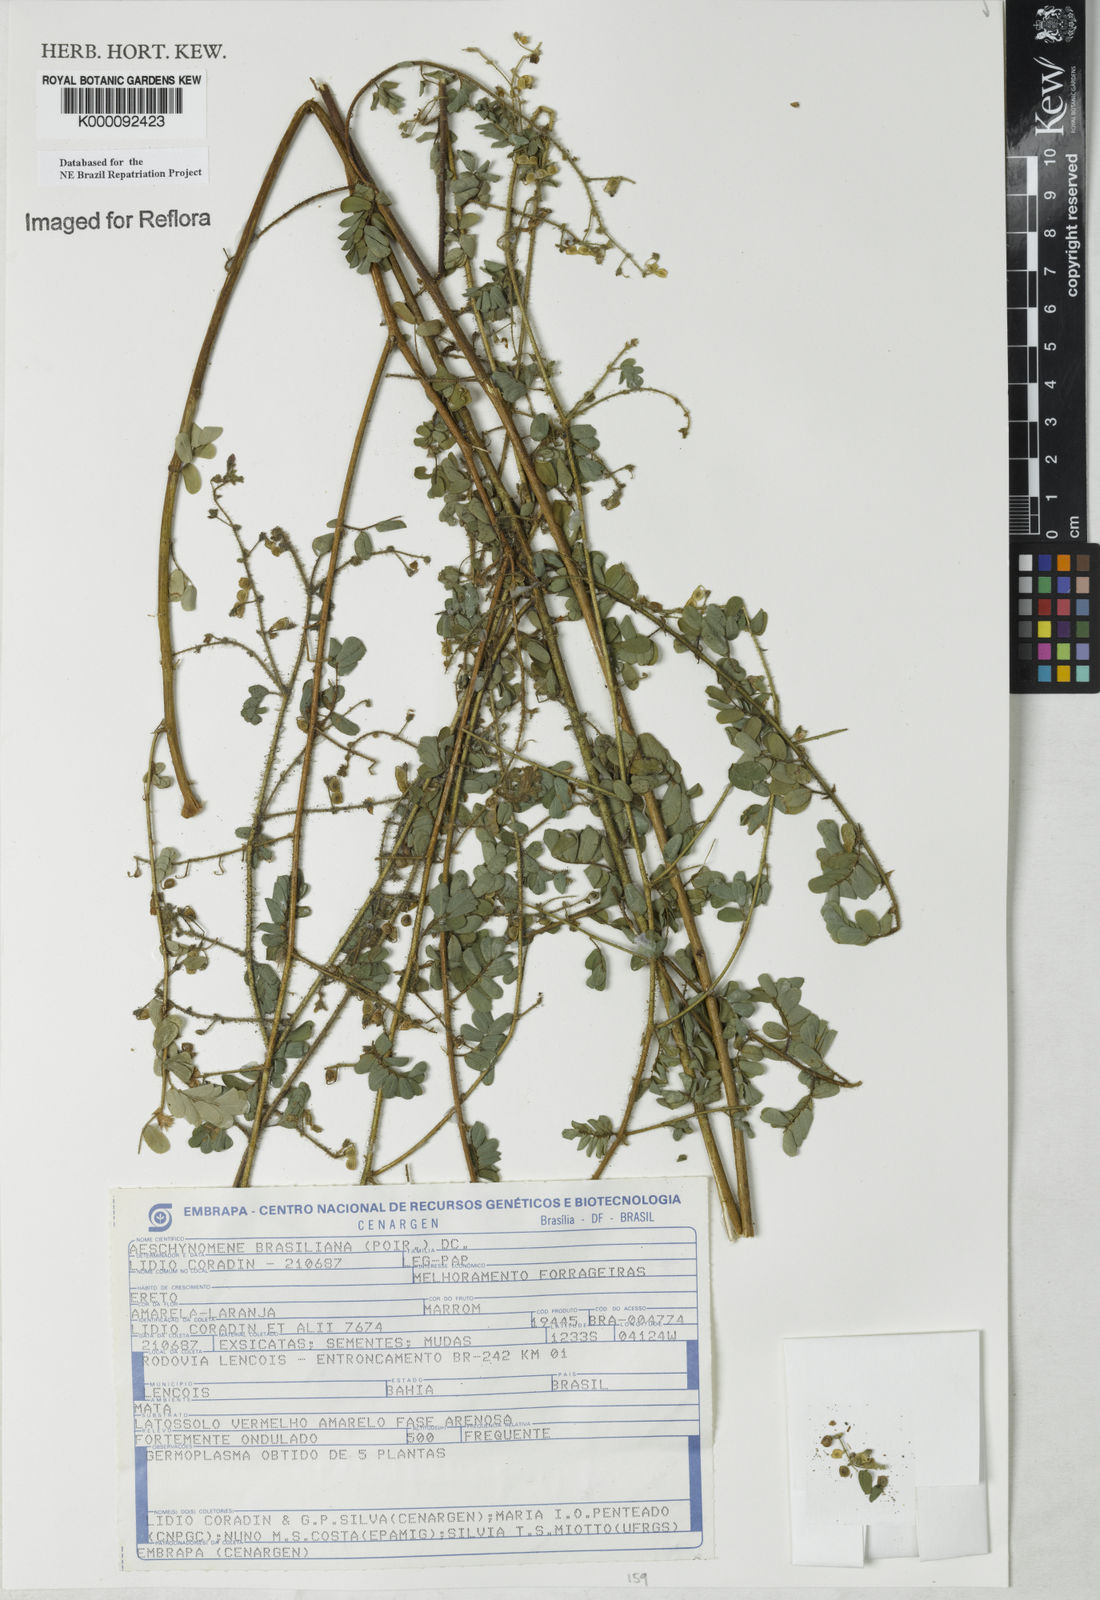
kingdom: Plantae
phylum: Tracheophyta
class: Magnoliopsida
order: Fabales
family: Fabaceae
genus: Ctenodon
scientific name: Ctenodon brasilianus
